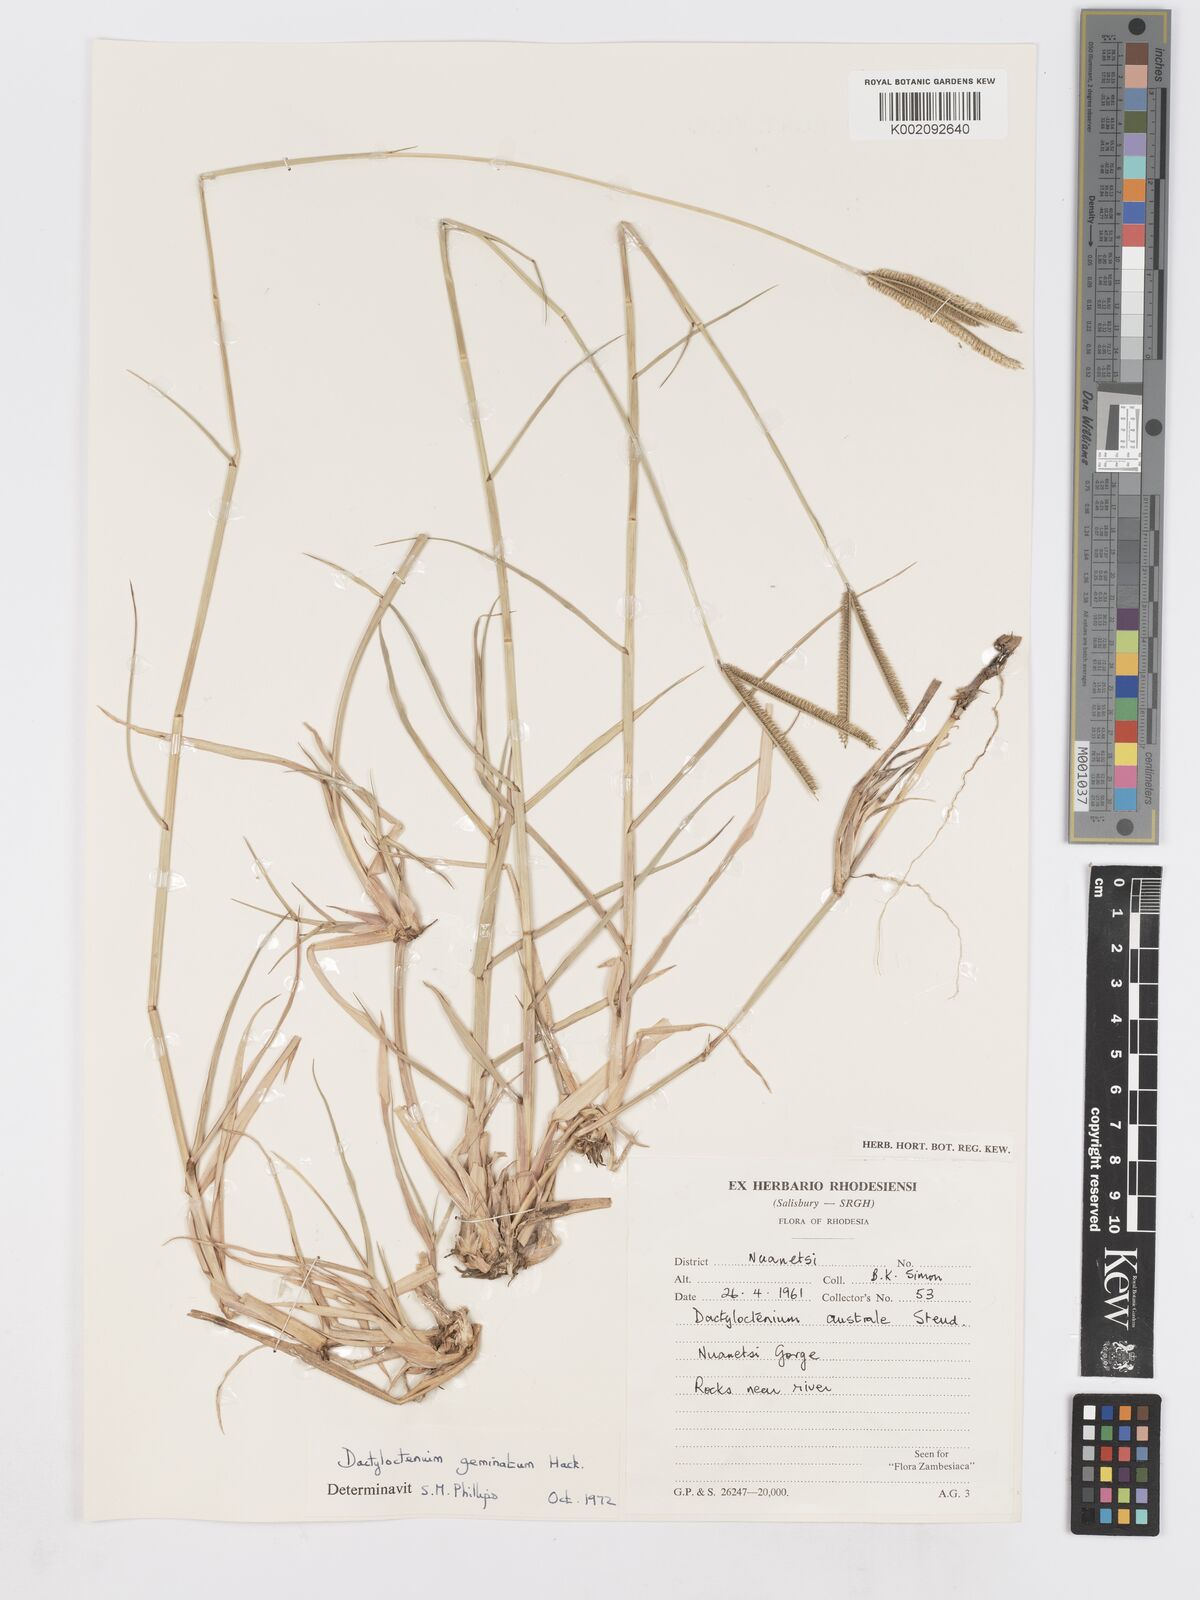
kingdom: Plantae
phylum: Tracheophyta
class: Liliopsida
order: Poales
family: Poaceae
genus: Dactyloctenium
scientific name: Dactyloctenium geminatum
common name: Crowsfoot grass
